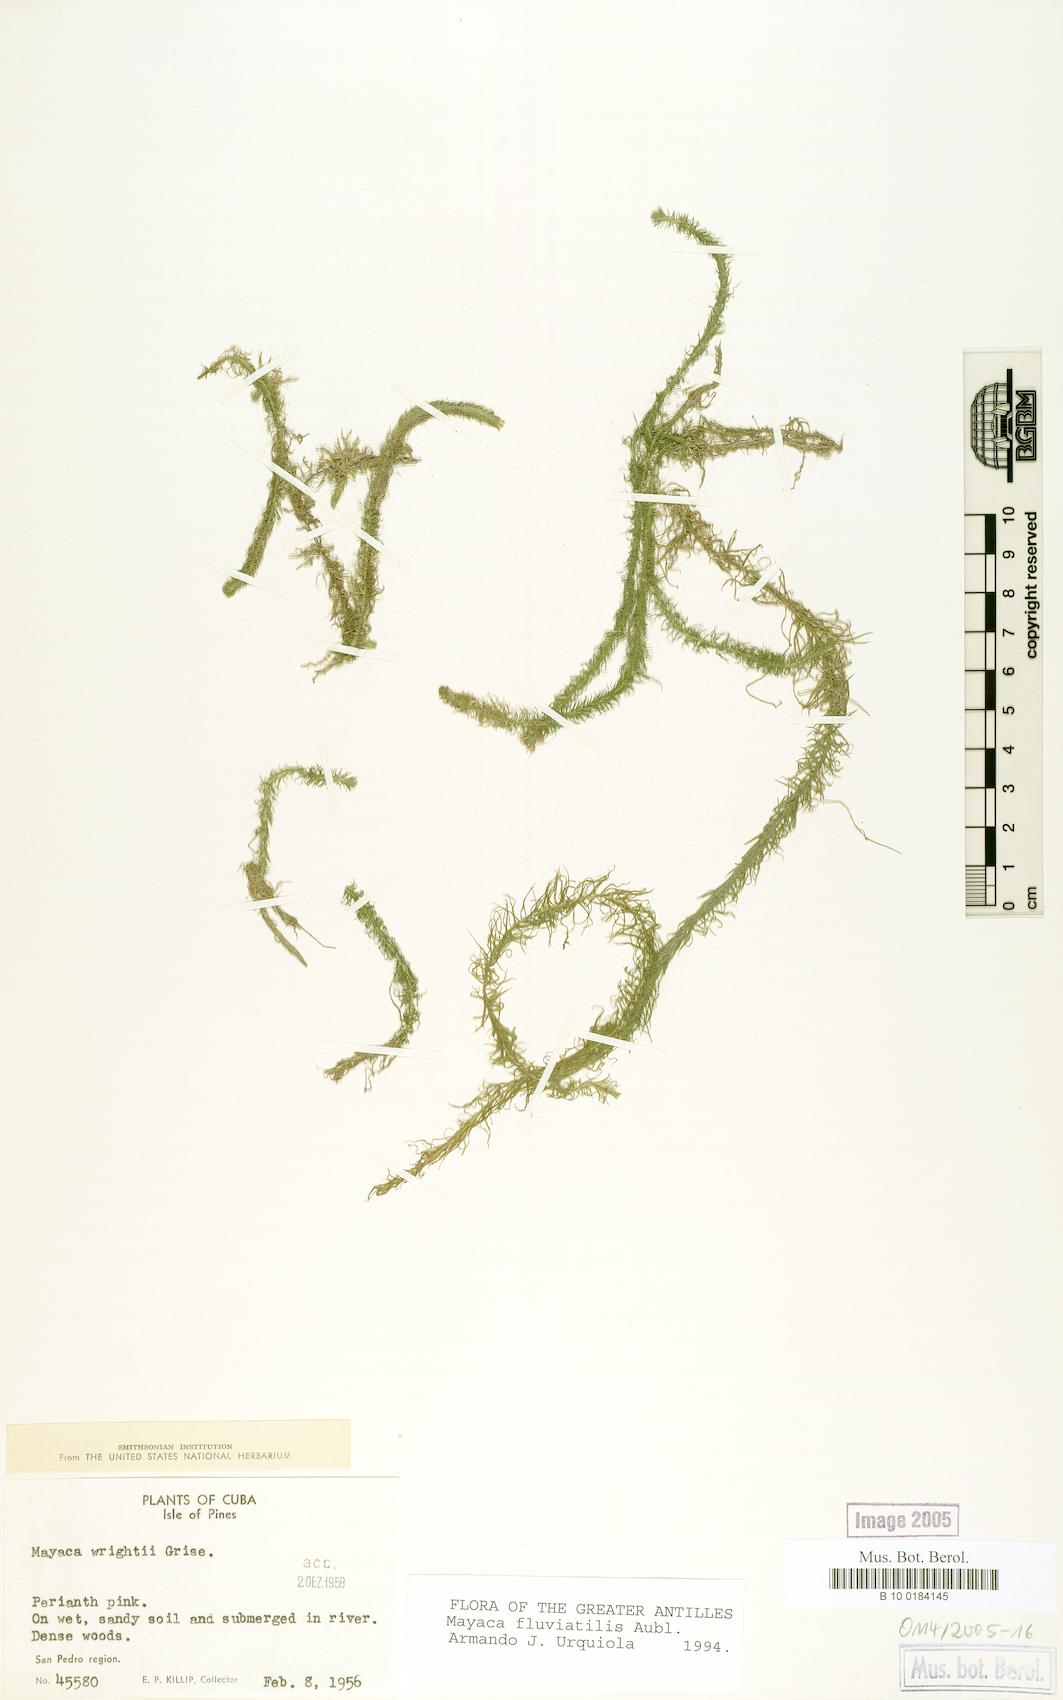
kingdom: Plantae
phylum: Tracheophyta
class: Liliopsida
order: Poales
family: Mayacaceae
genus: Mayaca
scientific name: Mayaca fluviatilis
